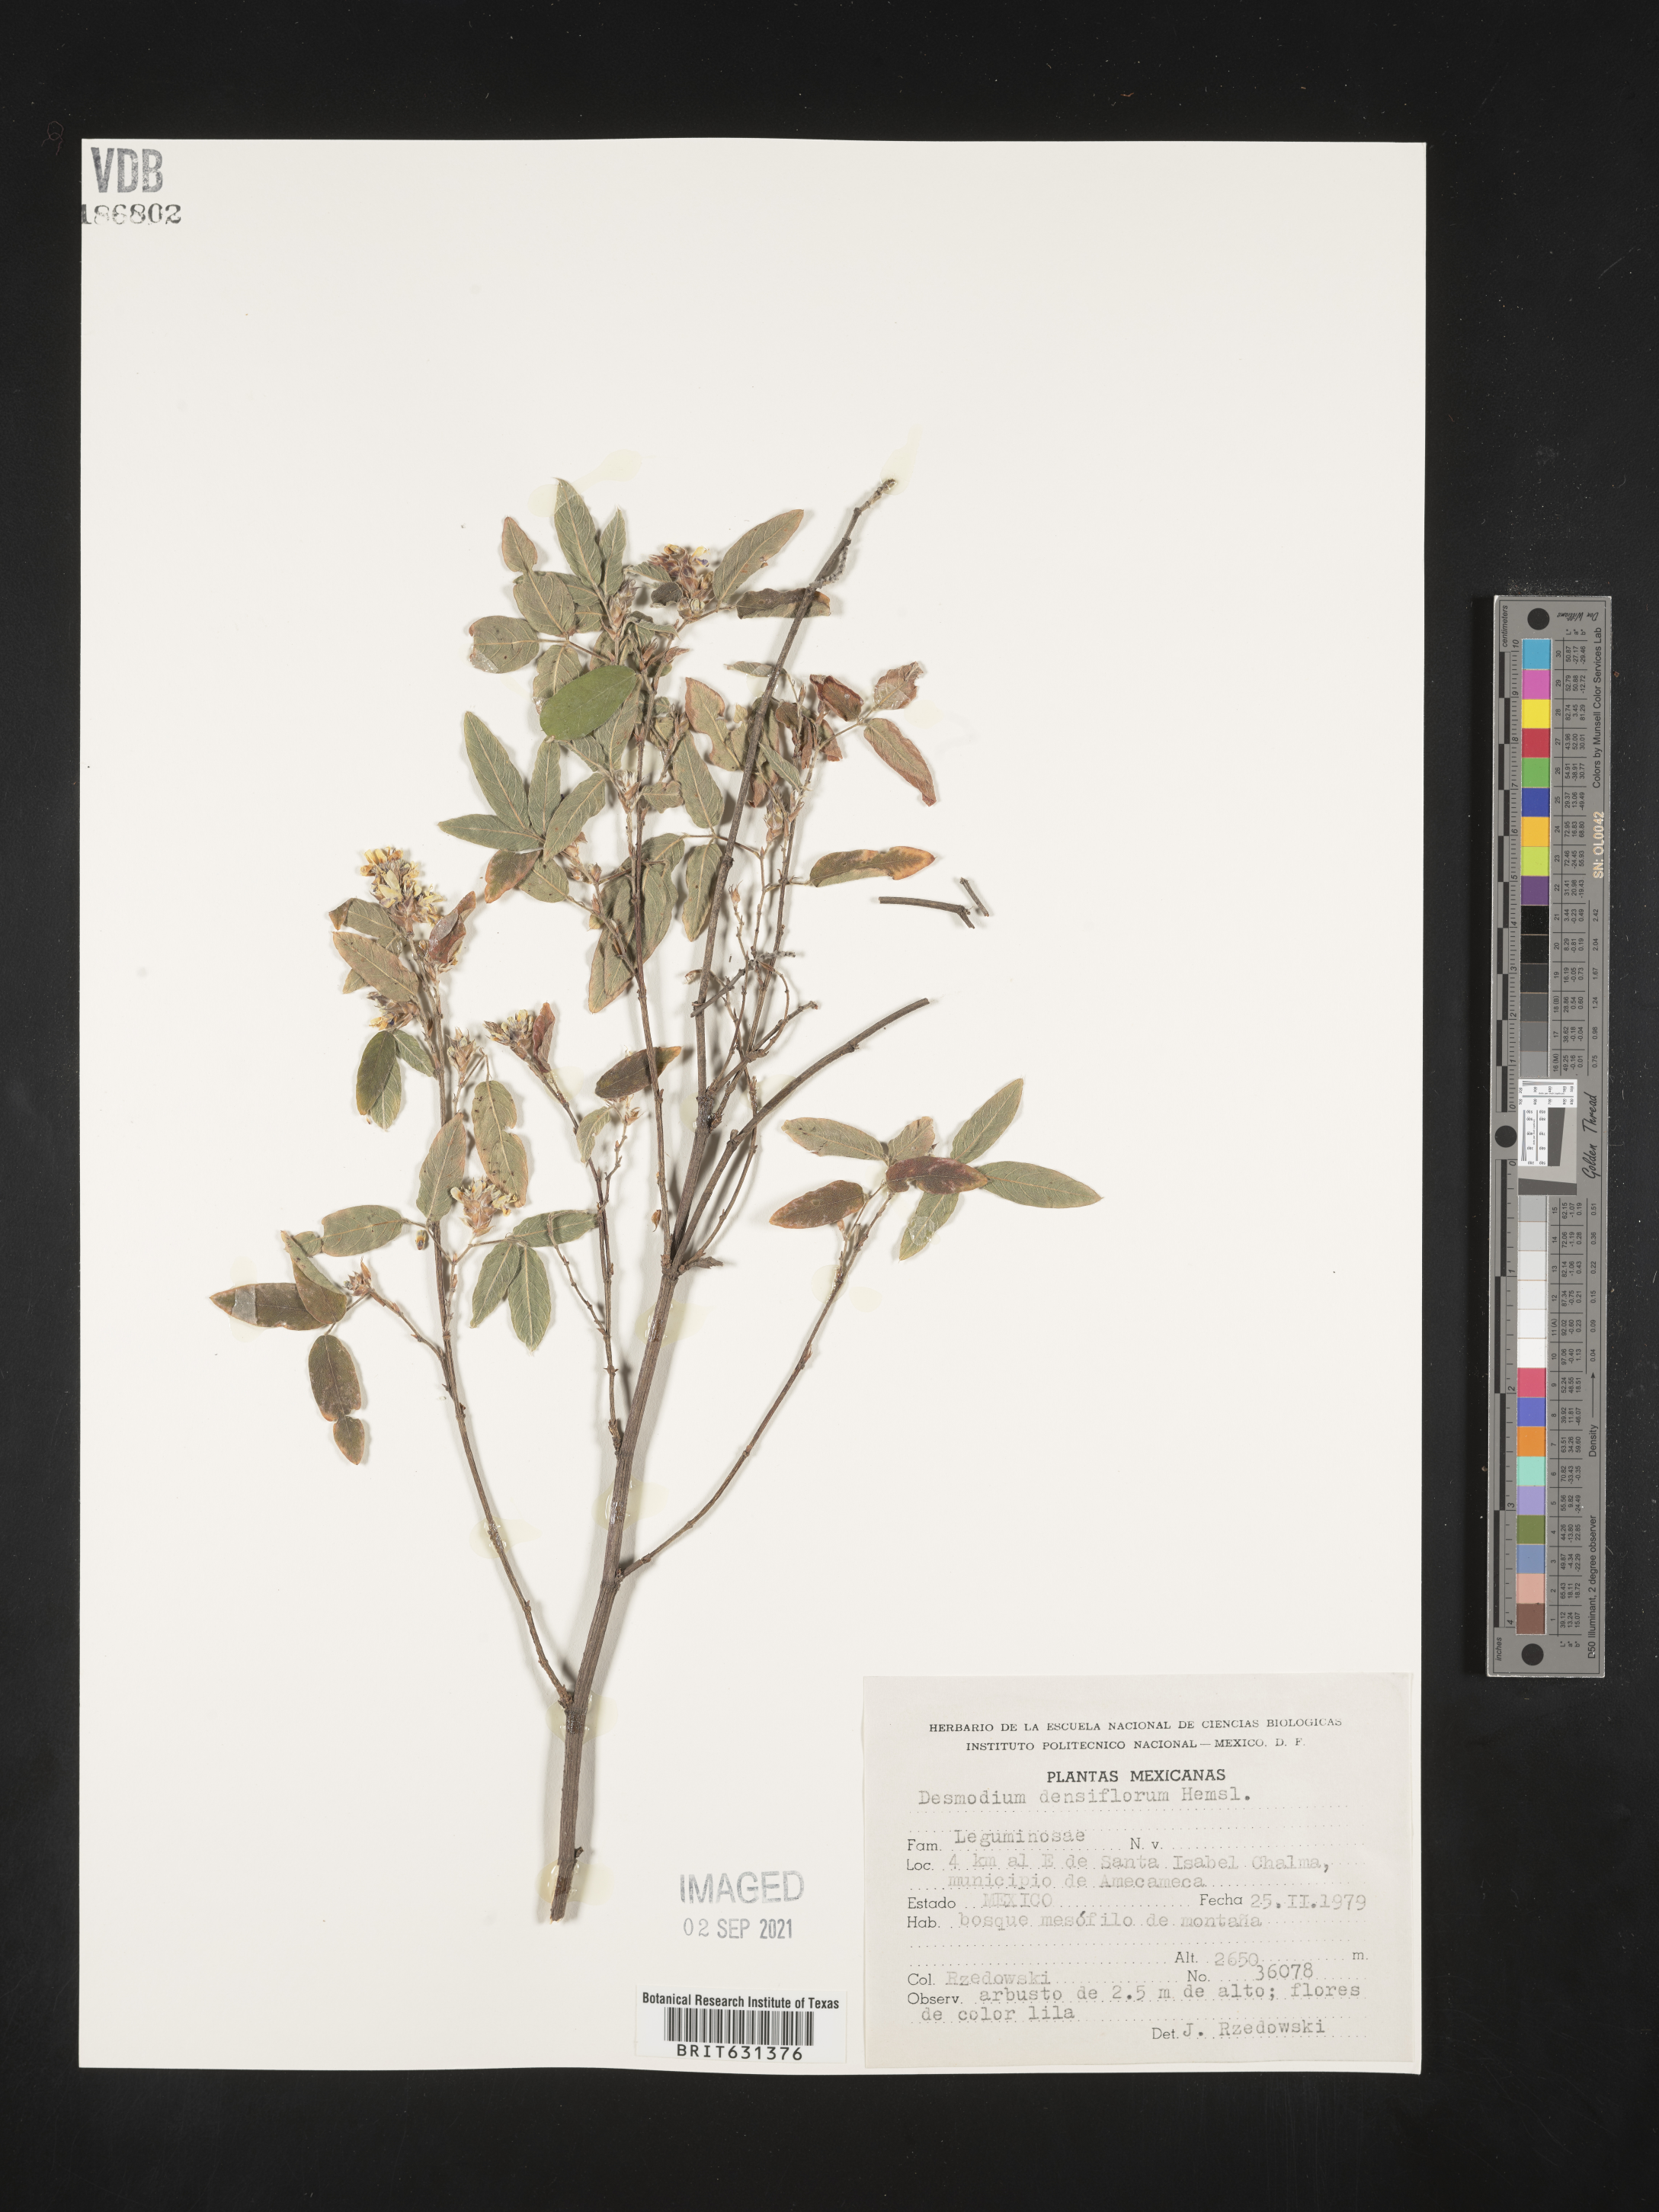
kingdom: Plantae
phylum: Tracheophyta
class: Magnoliopsida
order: Fabales
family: Fabaceae
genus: Desmodium
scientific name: Desmodium densiflorum
